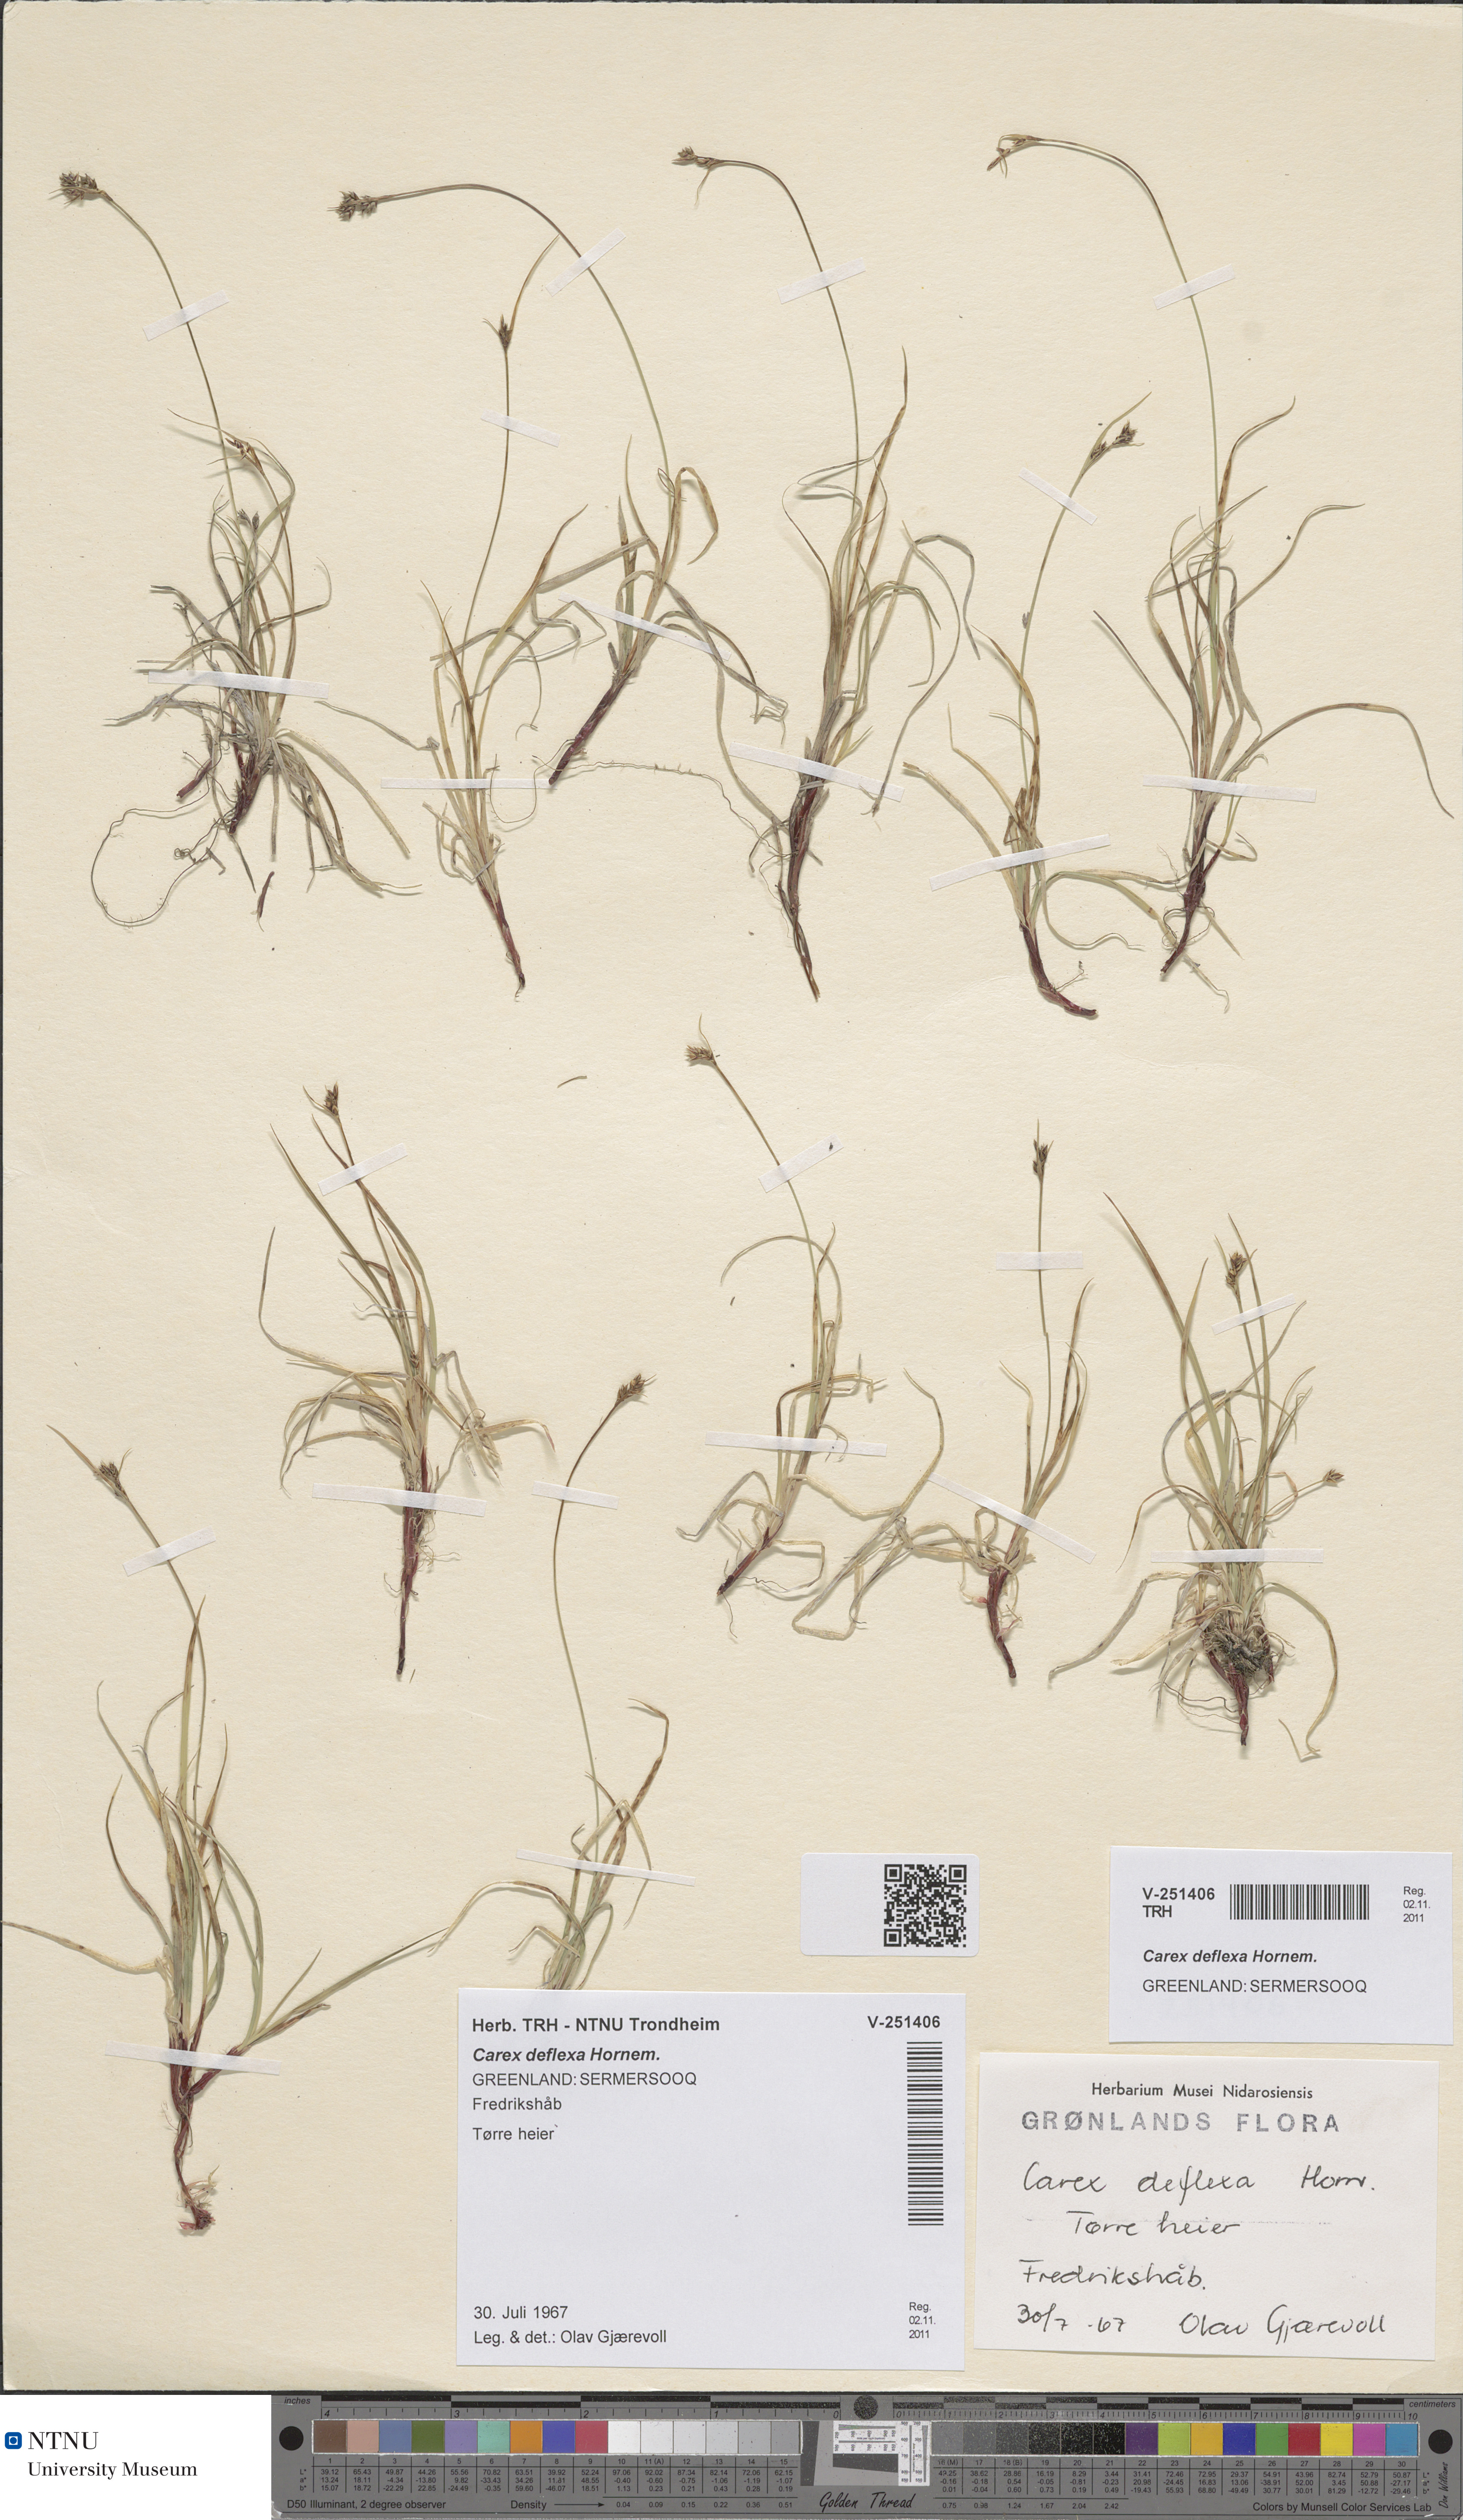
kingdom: Plantae
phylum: Tracheophyta
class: Liliopsida
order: Poales
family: Cyperaceae
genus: Carex
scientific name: Carex deflexa
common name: Bent northern sedge
